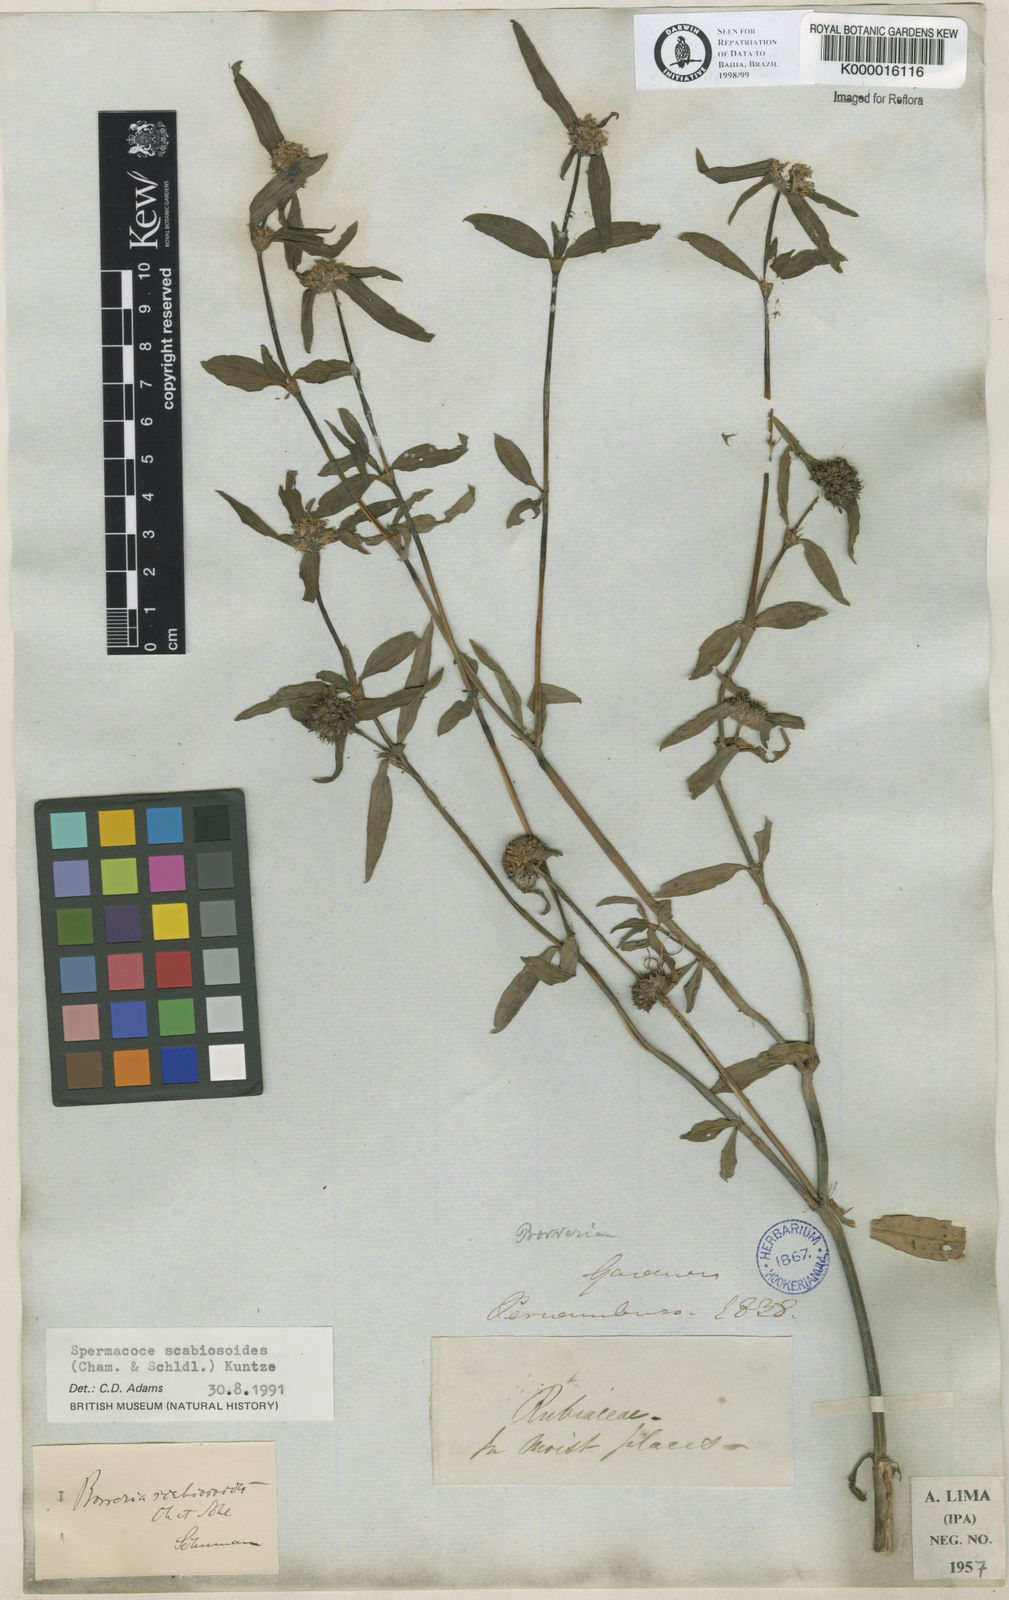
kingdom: Plantae
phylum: Tracheophyta
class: Magnoliopsida
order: Gentianales
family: Rubiaceae
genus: Spermacoce
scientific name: Spermacoce scabiosoides
